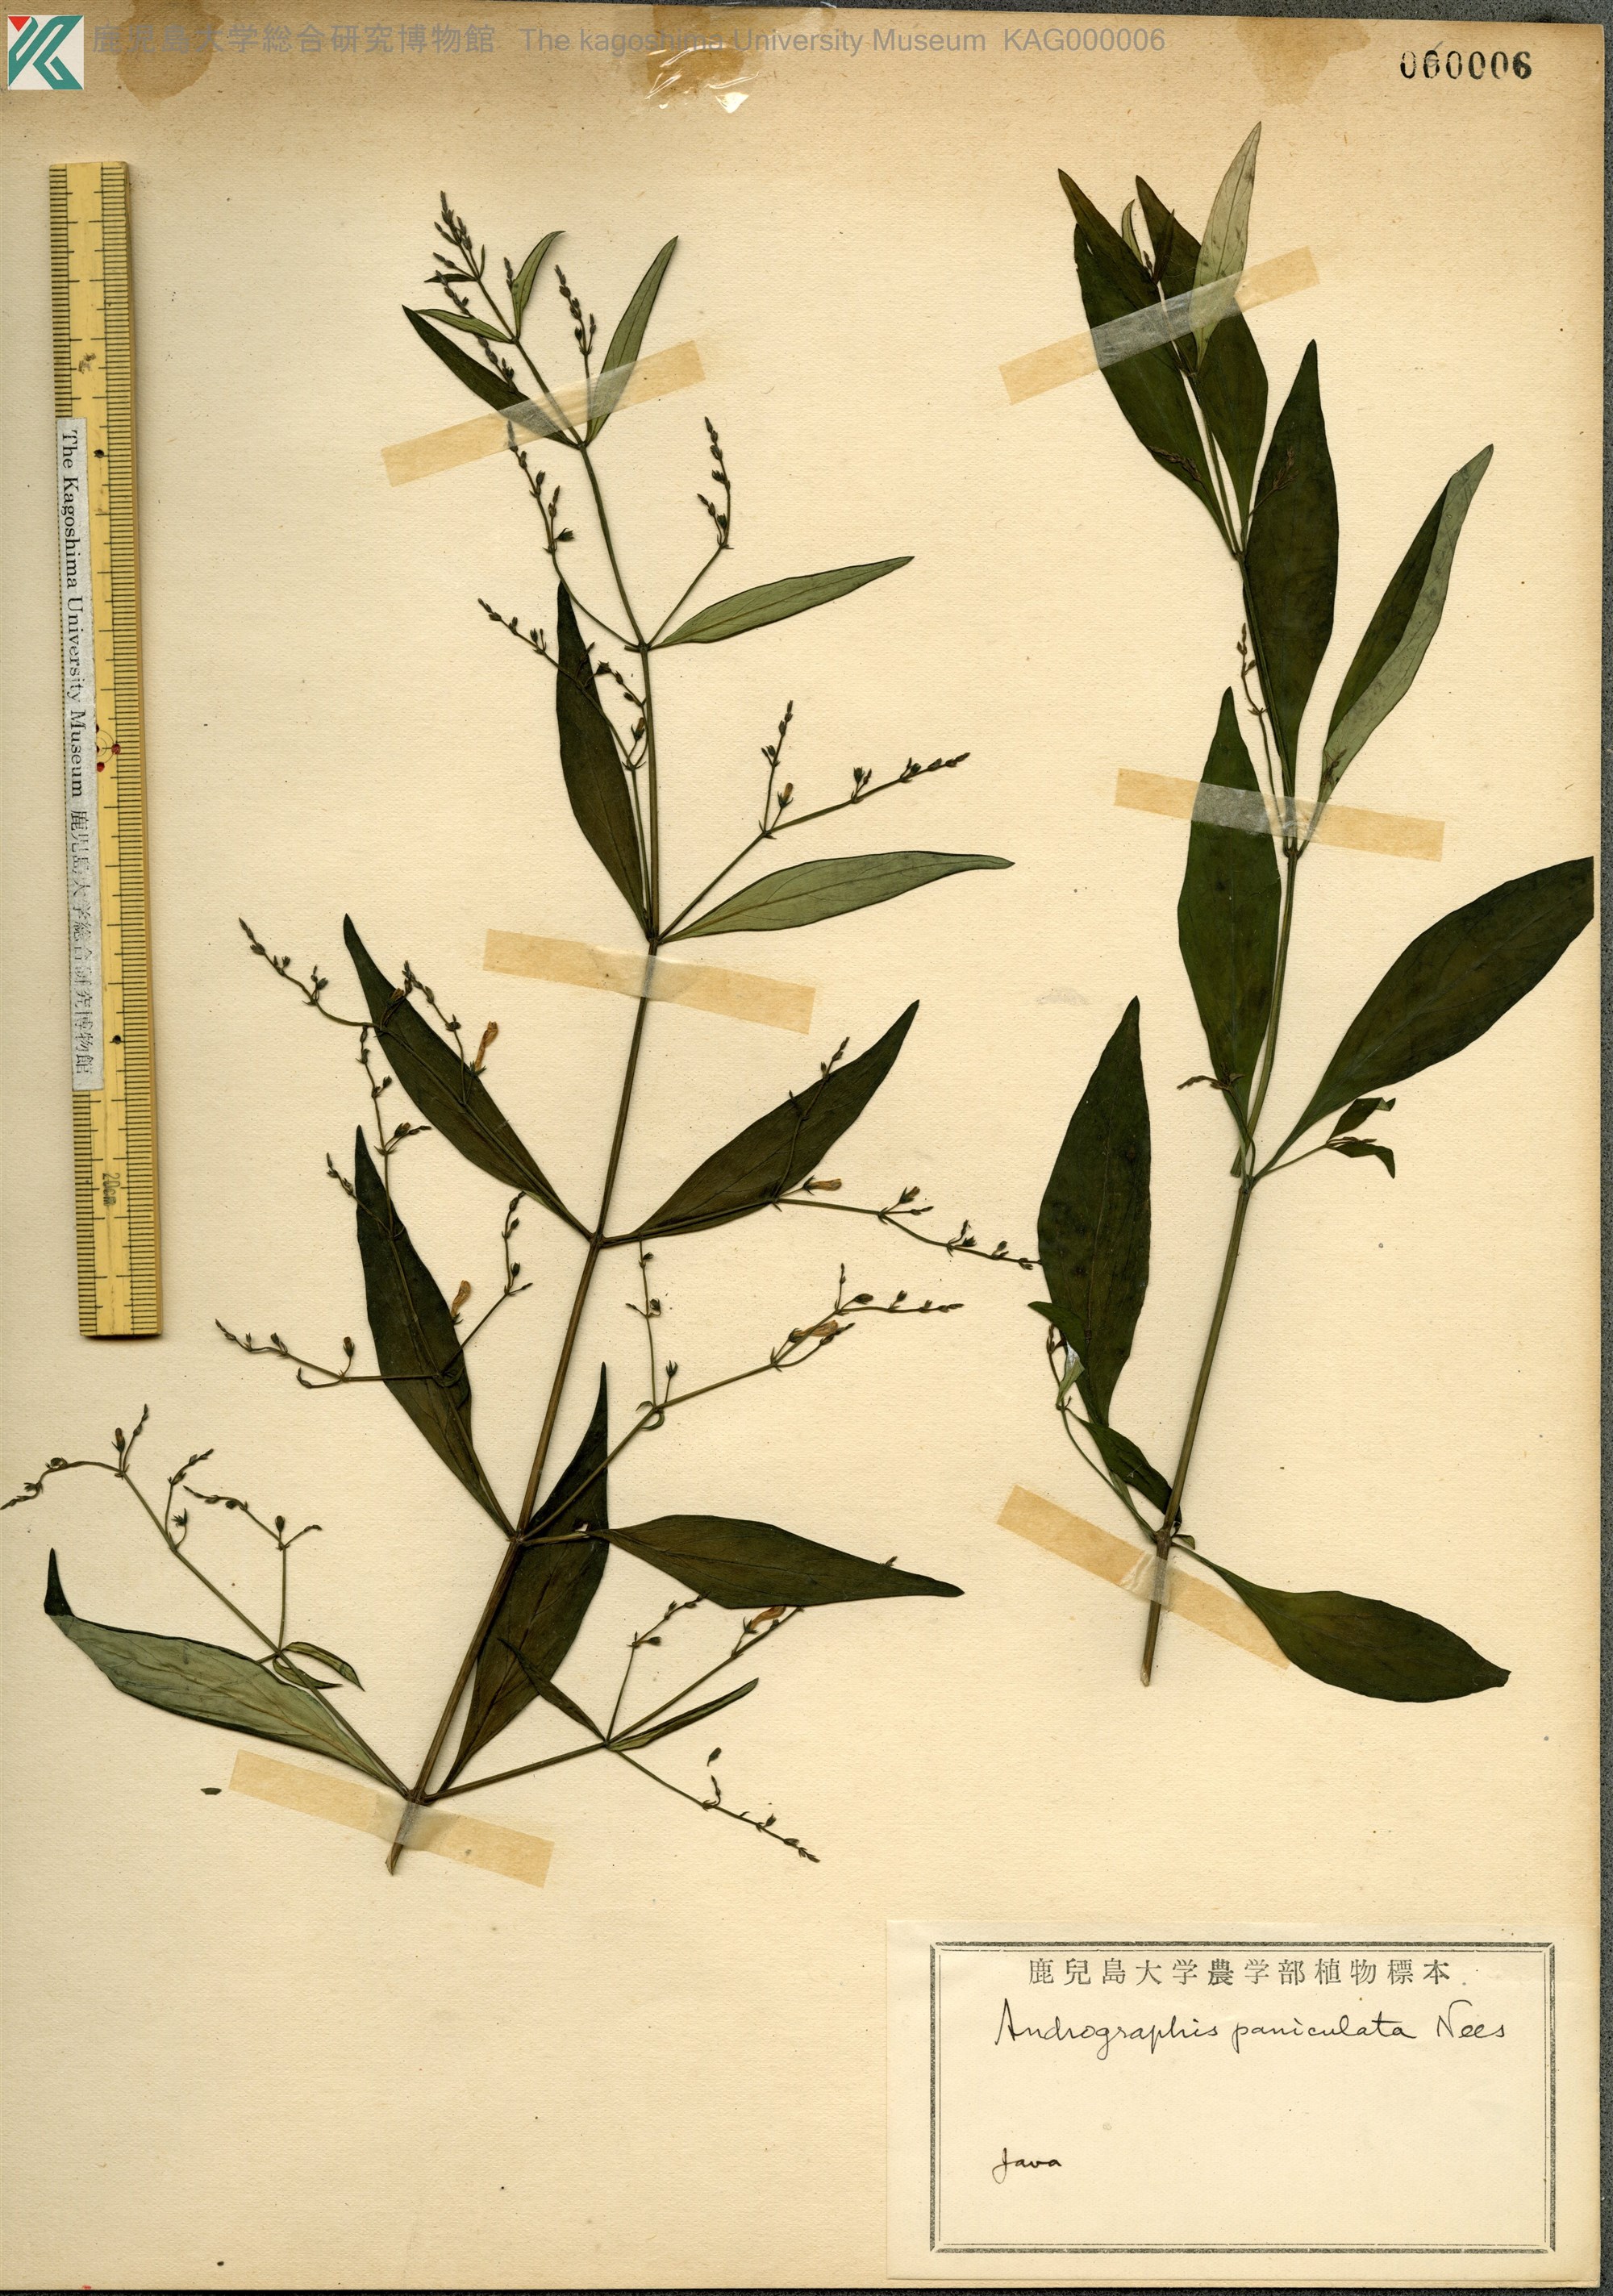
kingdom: Plantae
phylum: Tracheophyta
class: Magnoliopsida
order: Lamiales
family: Acanthaceae
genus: Andrographis
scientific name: Andrographis paniculata
